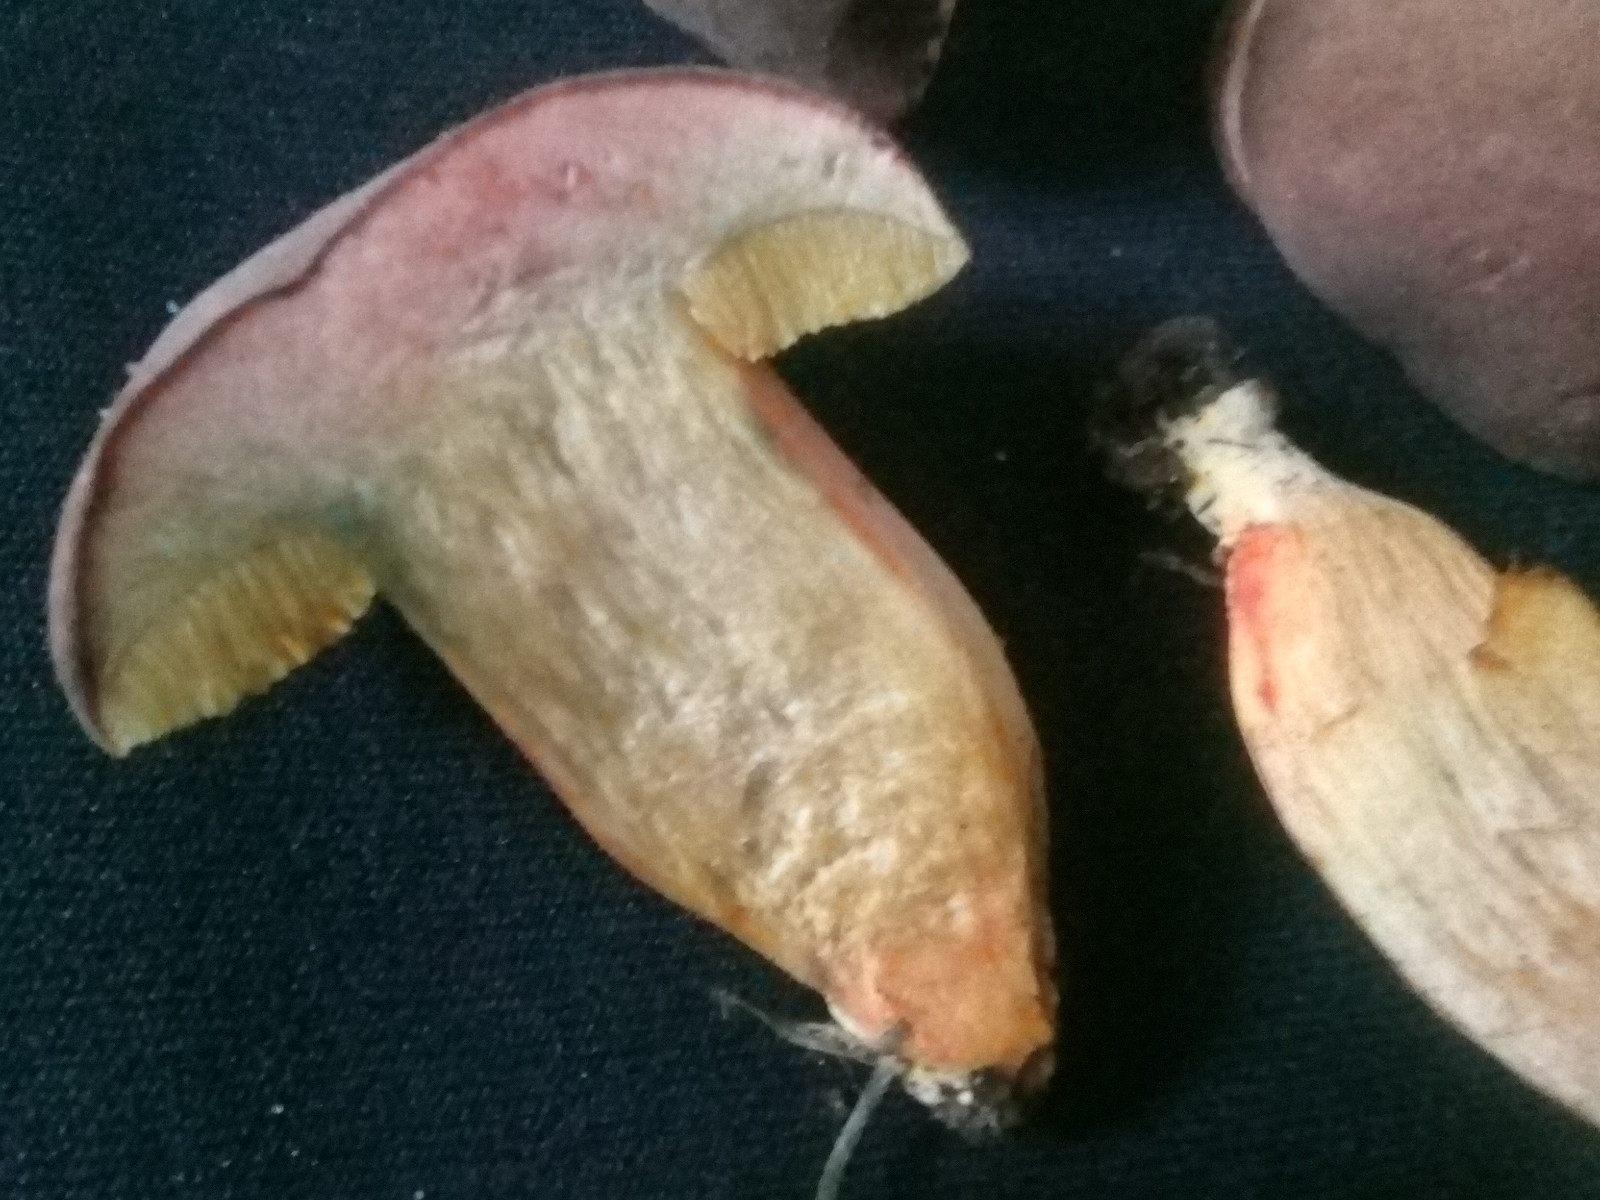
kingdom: Fungi
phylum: Basidiomycota
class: Agaricomycetes
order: Boletales
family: Boletaceae
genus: Hortiboletus
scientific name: Hortiboletus bubalinus
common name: aurora-rørhat
